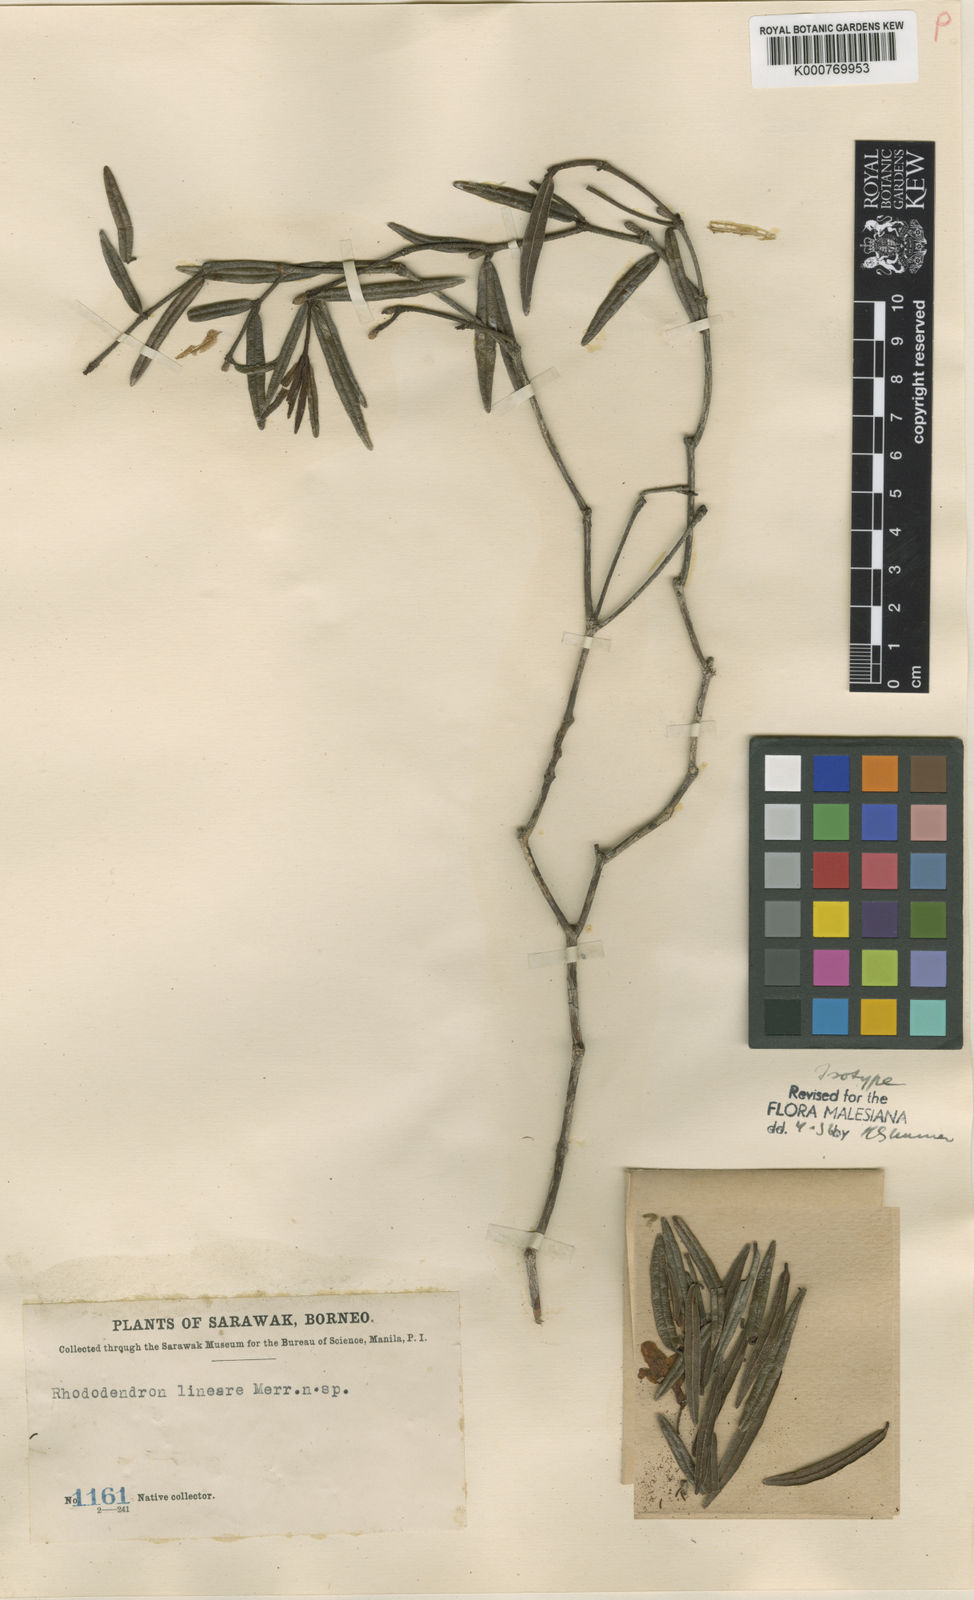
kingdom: Plantae
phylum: Tracheophyta
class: Magnoliopsida
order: Ericales
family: Ericaceae
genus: Rhododendron
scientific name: Rhododendron lineare
